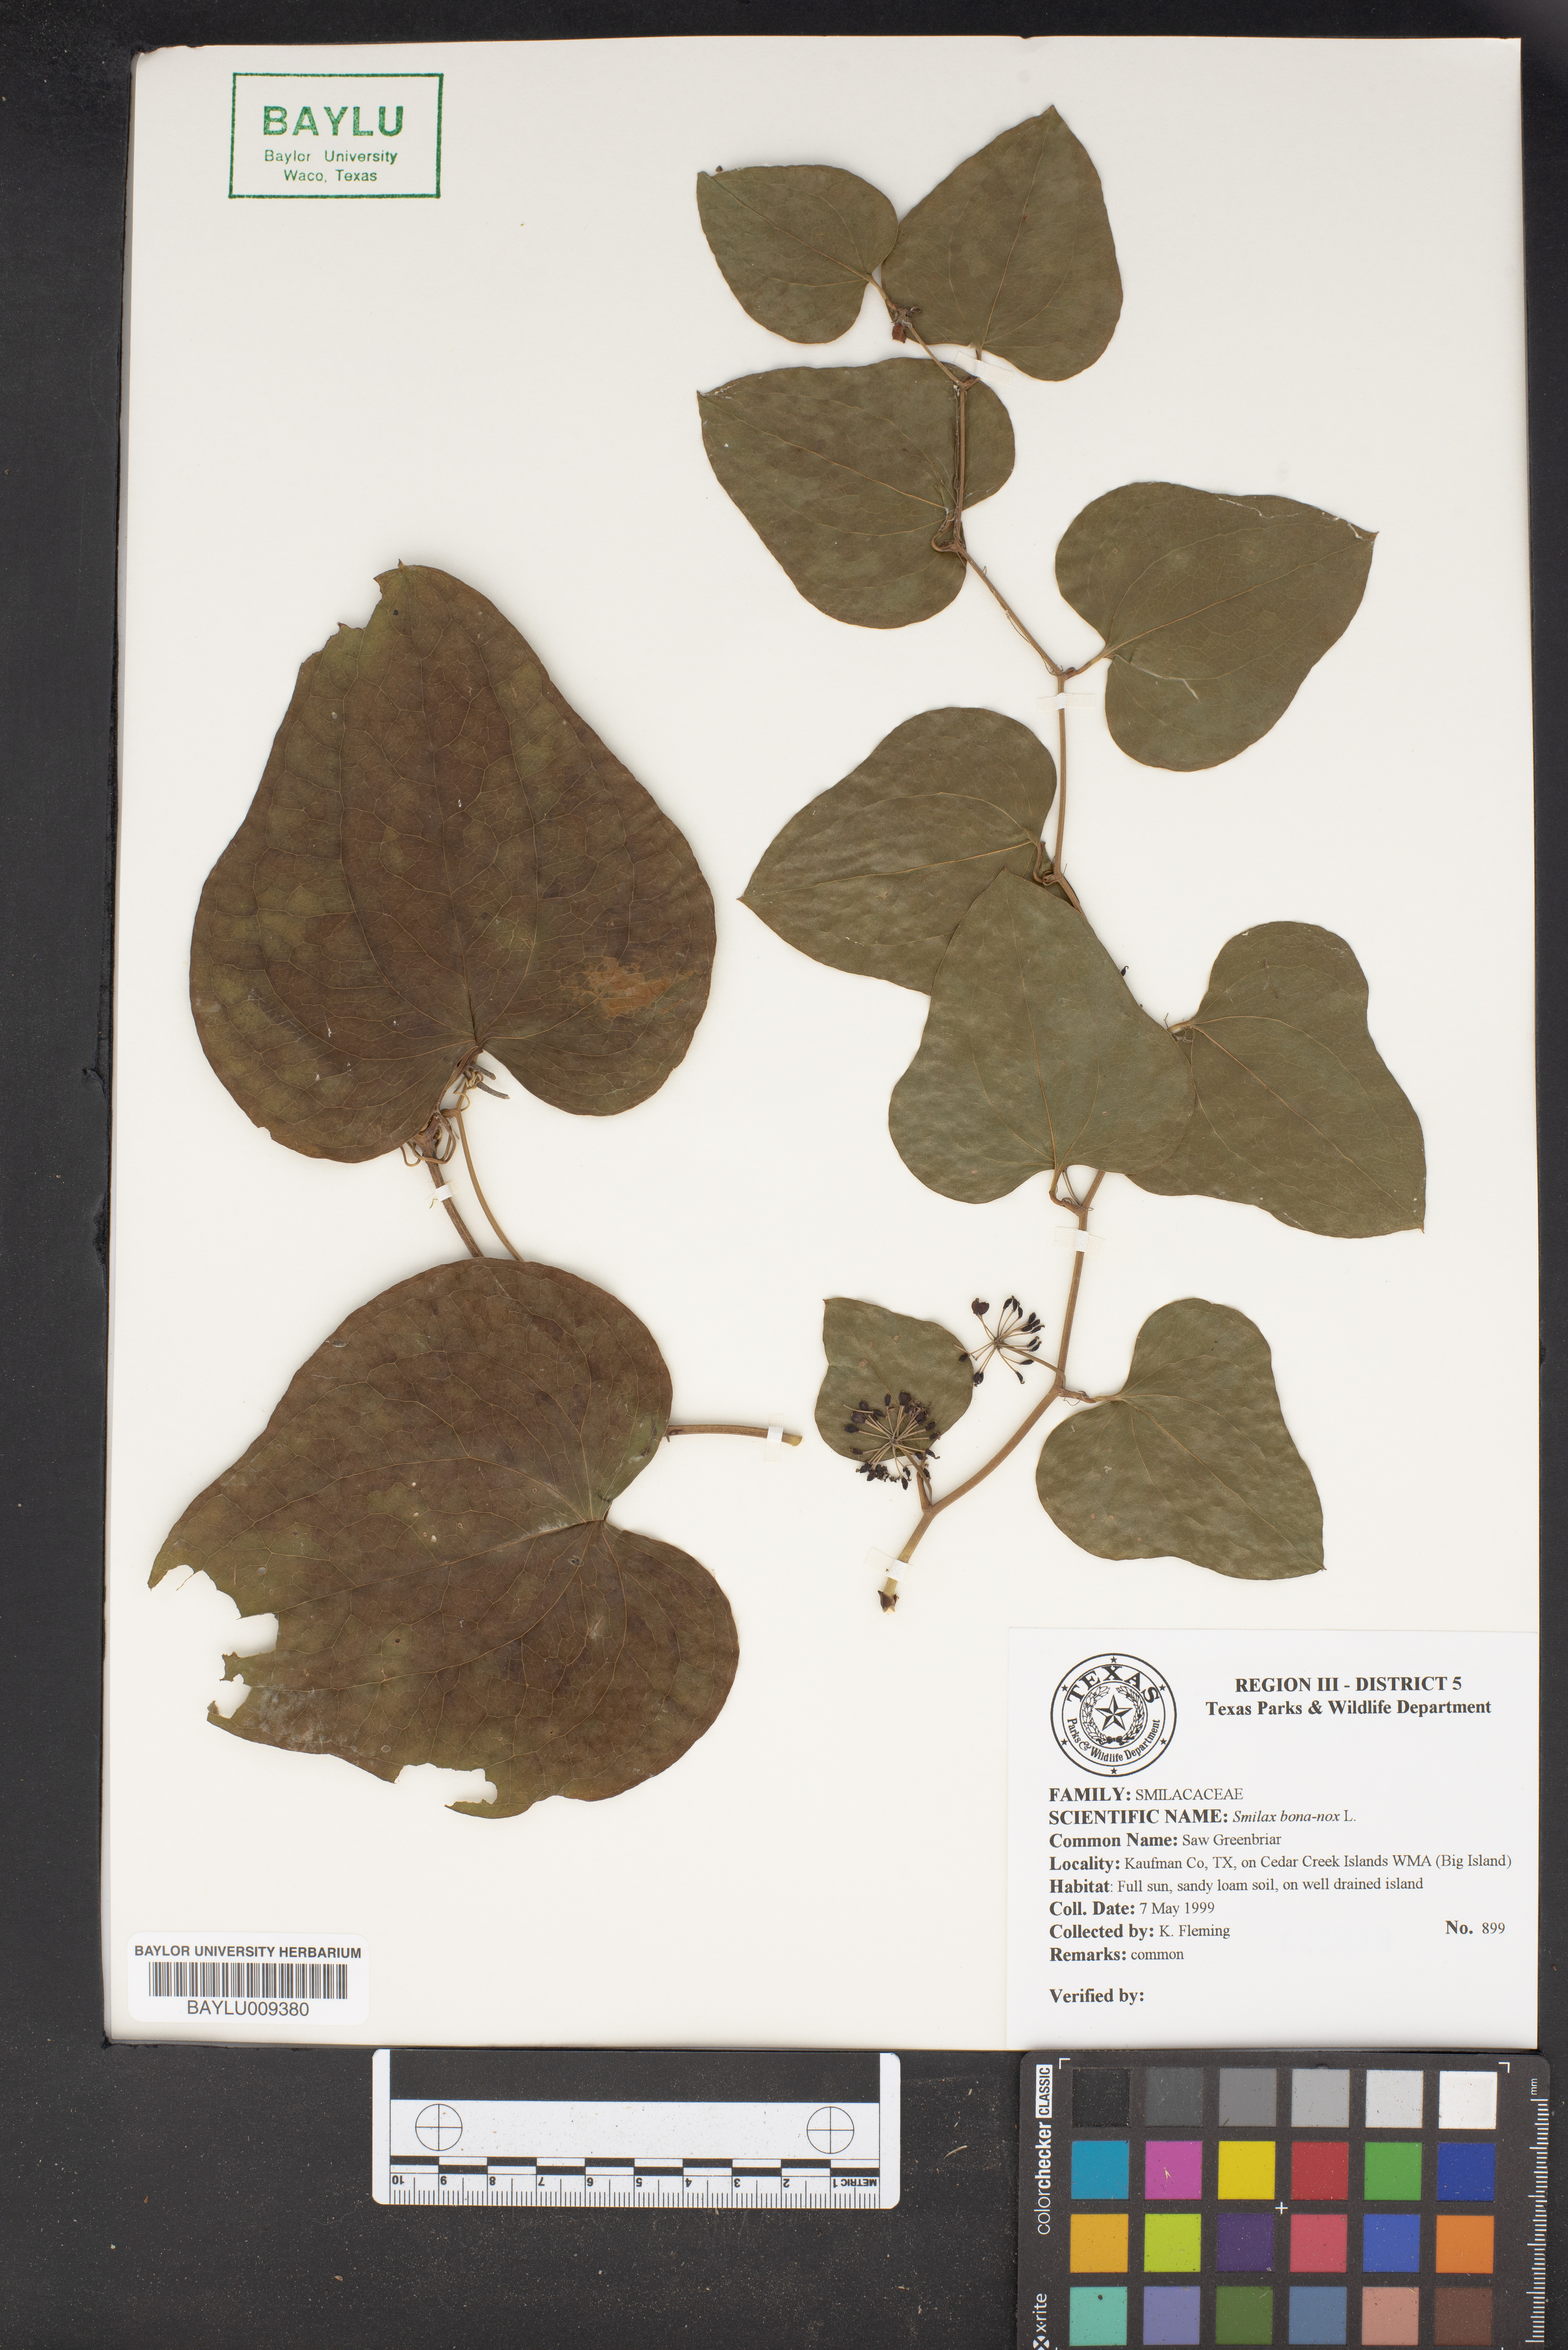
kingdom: Plantae
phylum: Tracheophyta
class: Liliopsida
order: Liliales
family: Smilacaceae
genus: Smilax
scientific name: Smilax bona-nox
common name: Catbrier
